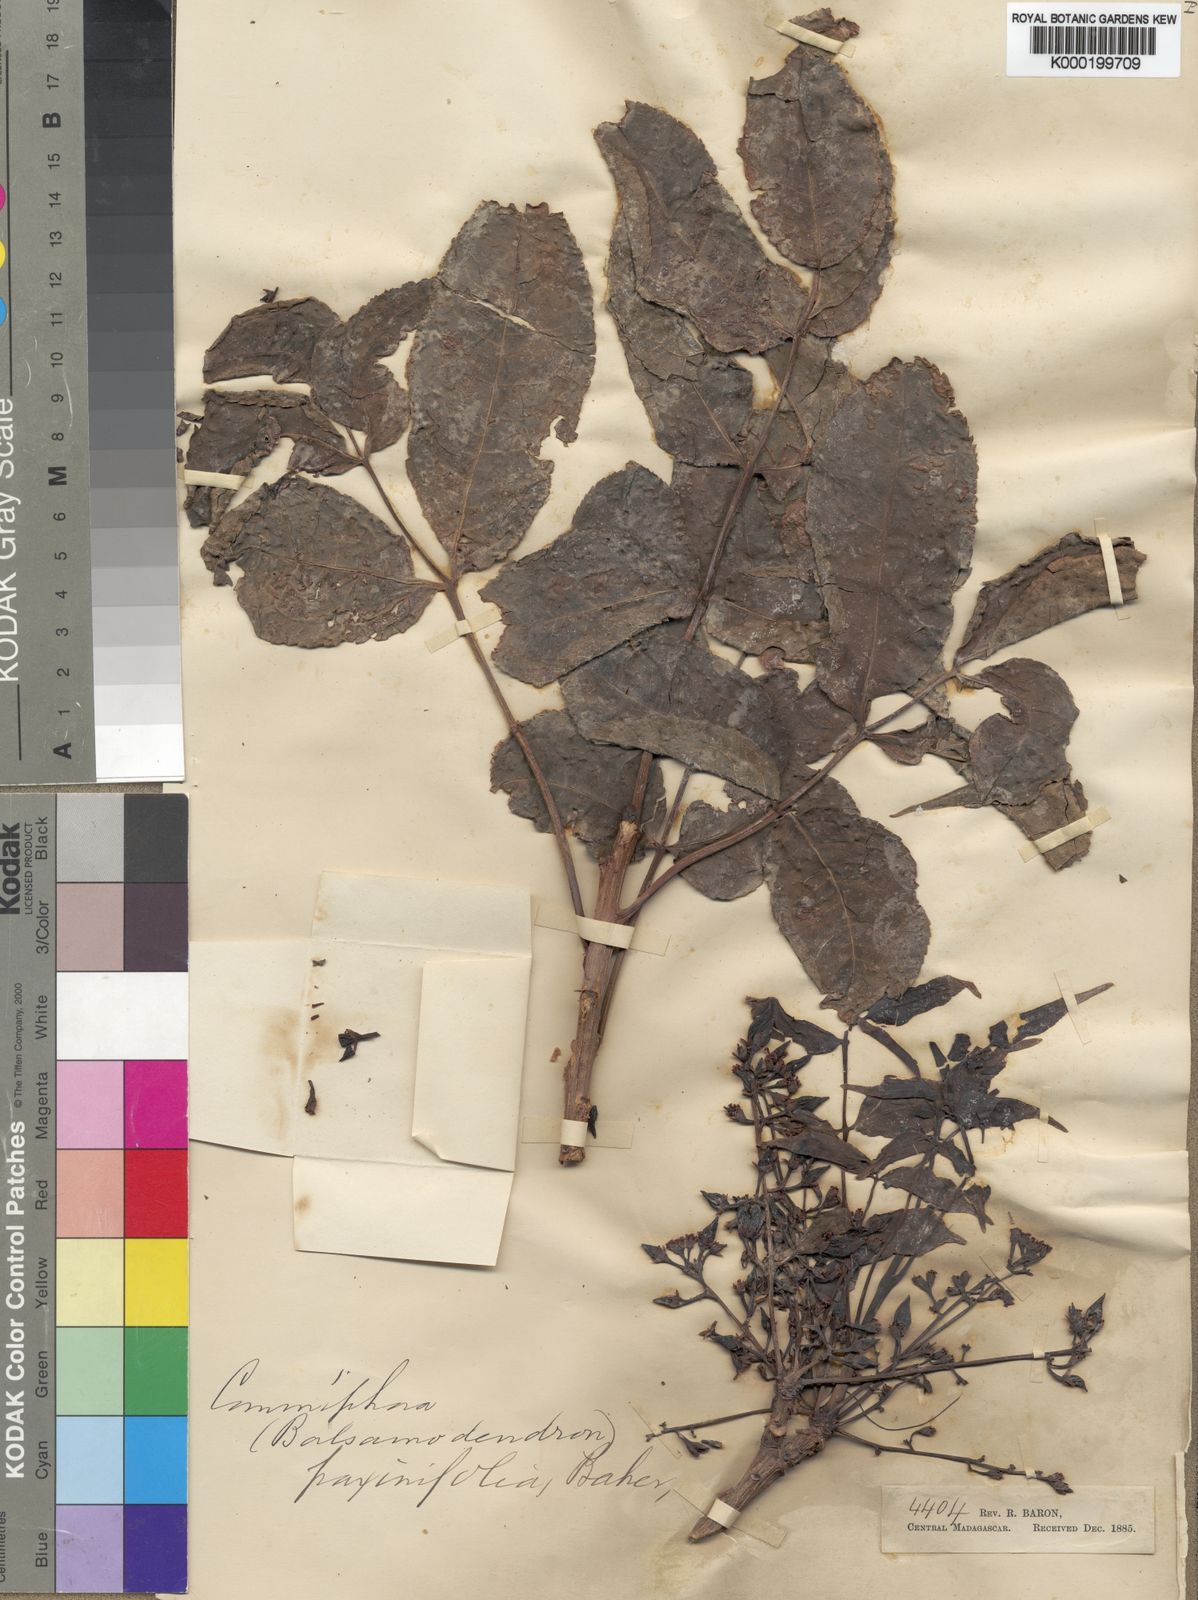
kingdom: Plantae
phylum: Tracheophyta
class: Magnoliopsida
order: Sapindales
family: Burseraceae
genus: Commiphora
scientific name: Commiphora fraxinifolia
